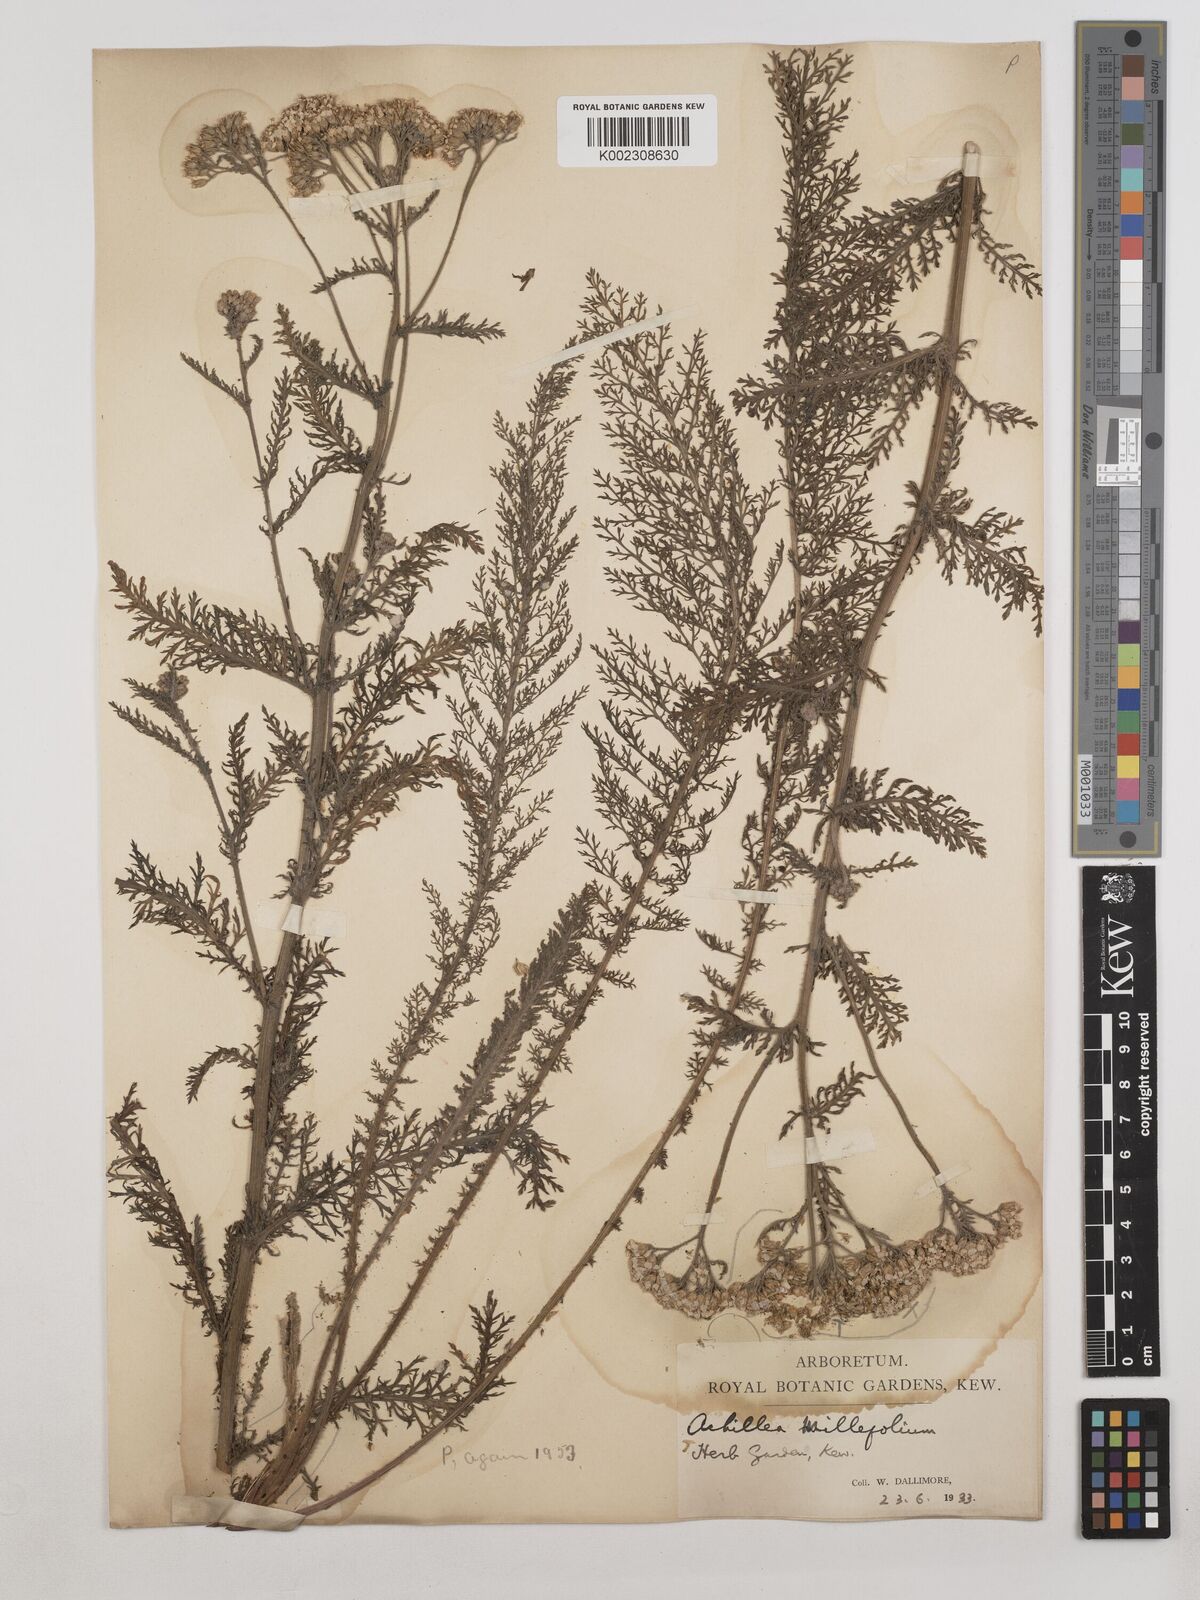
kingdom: Plantae
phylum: Tracheophyta
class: Magnoliopsida
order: Asterales
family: Asteraceae
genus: Achillea
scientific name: Achillea millefolium
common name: Yarrow
